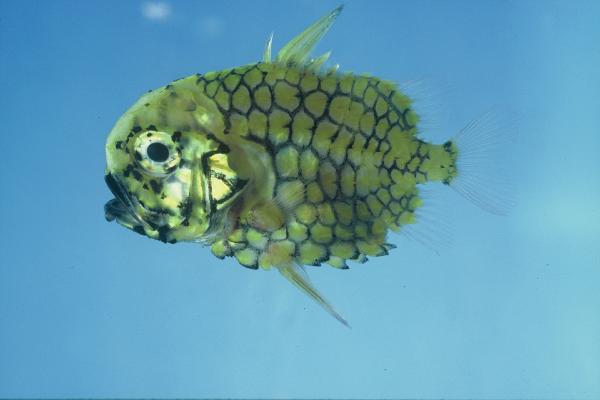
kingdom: Animalia
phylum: Chordata
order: Beryciformes
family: Monocentridae
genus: Monocentris
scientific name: Monocentris japonica
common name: Pineconefish
